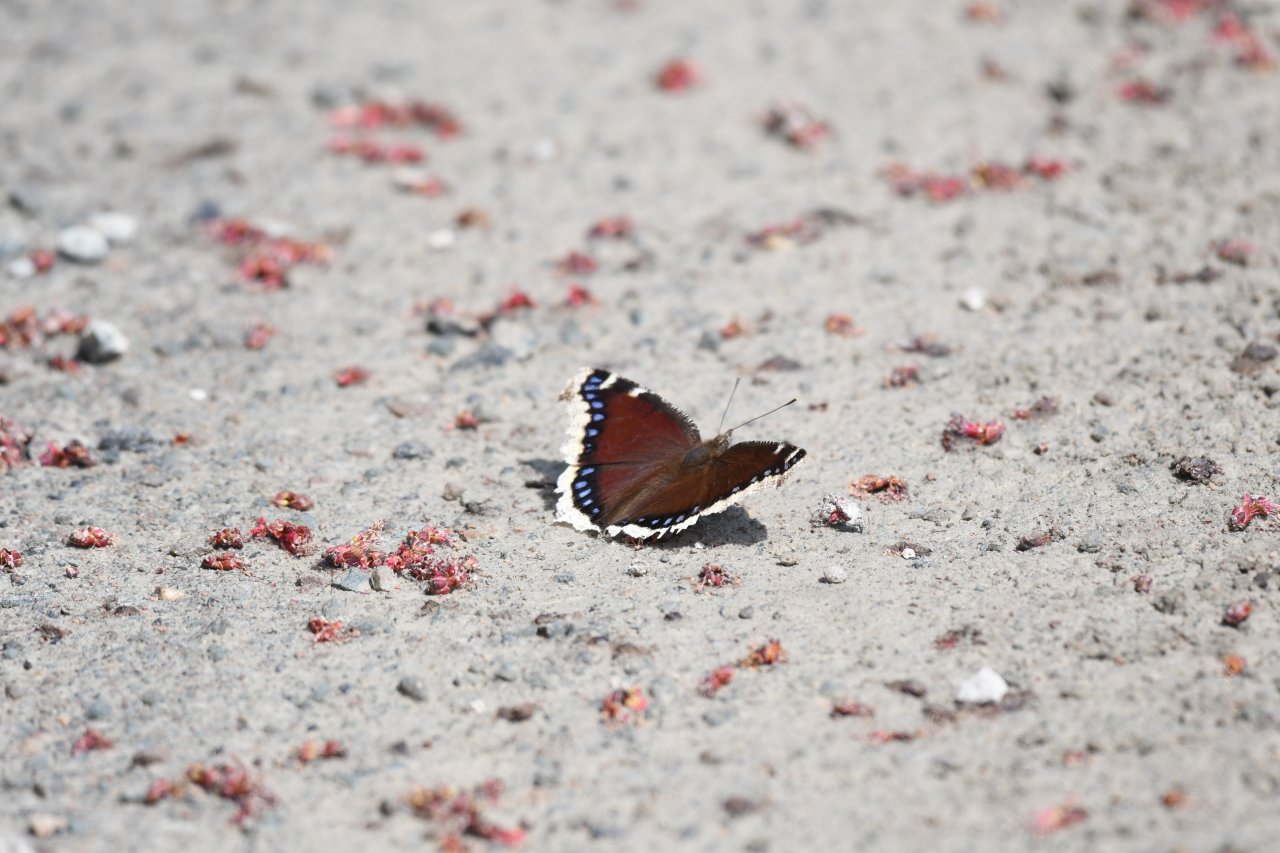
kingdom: Animalia
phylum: Arthropoda
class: Insecta
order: Lepidoptera
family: Nymphalidae
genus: Nymphalis
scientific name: Nymphalis antiopa
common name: Mourning Cloak
